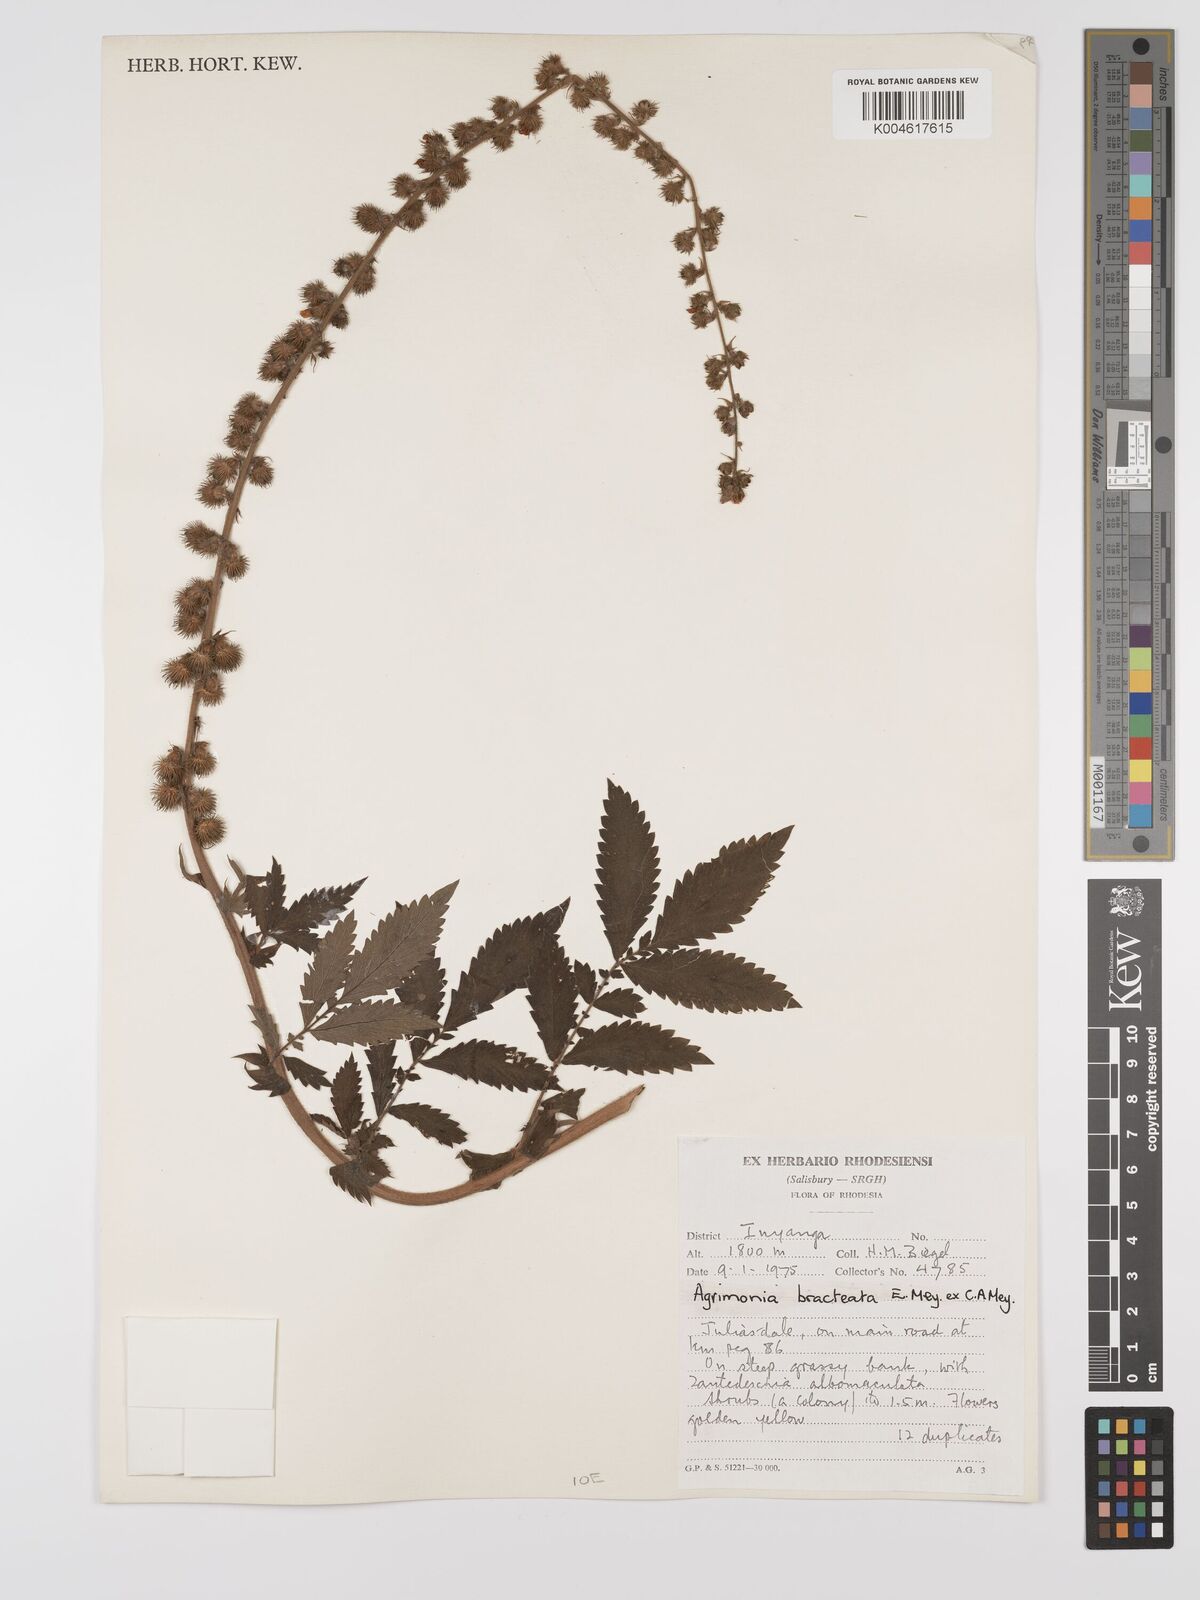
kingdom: Plantae
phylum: Tracheophyta
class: Magnoliopsida
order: Rosales
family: Rosaceae
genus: Agrimonia
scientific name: Agrimonia bracteata
